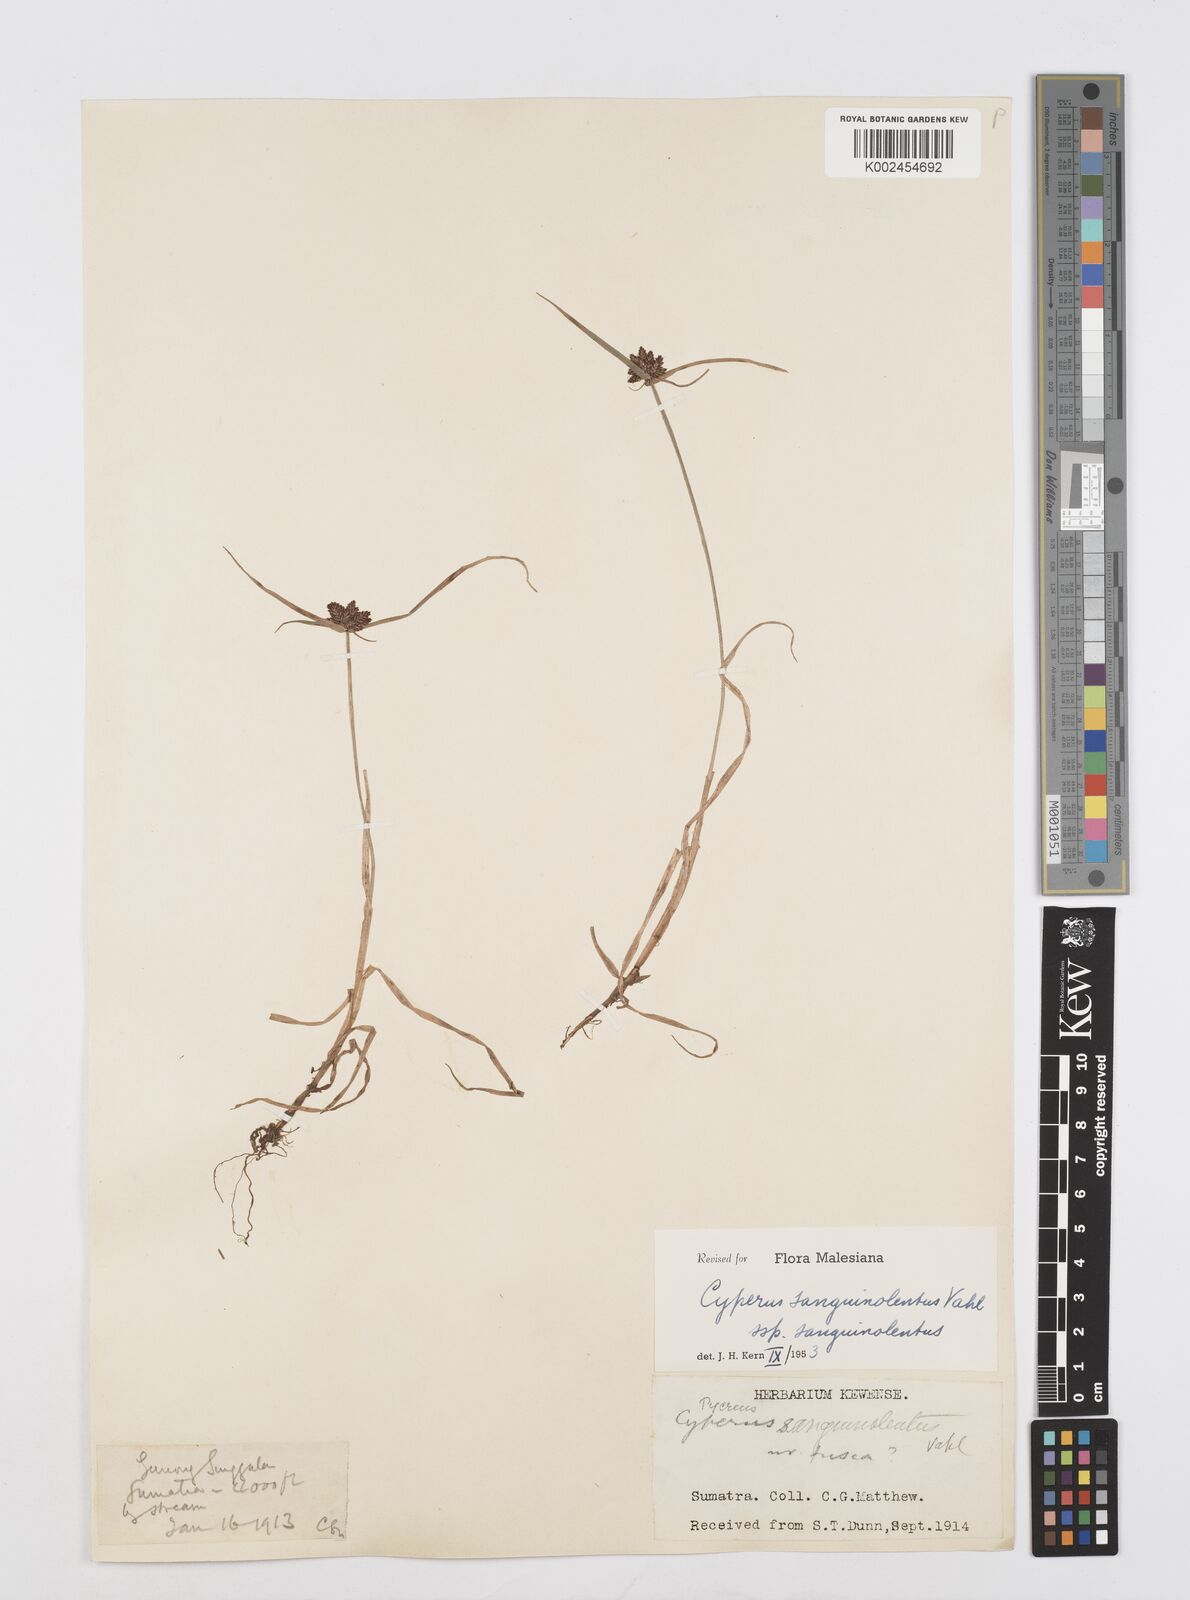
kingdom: Plantae
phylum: Tracheophyta
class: Liliopsida
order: Poales
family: Cyperaceae
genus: Cyperus
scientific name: Cyperus sanguinolentus
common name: Purpleglume flatsedge
